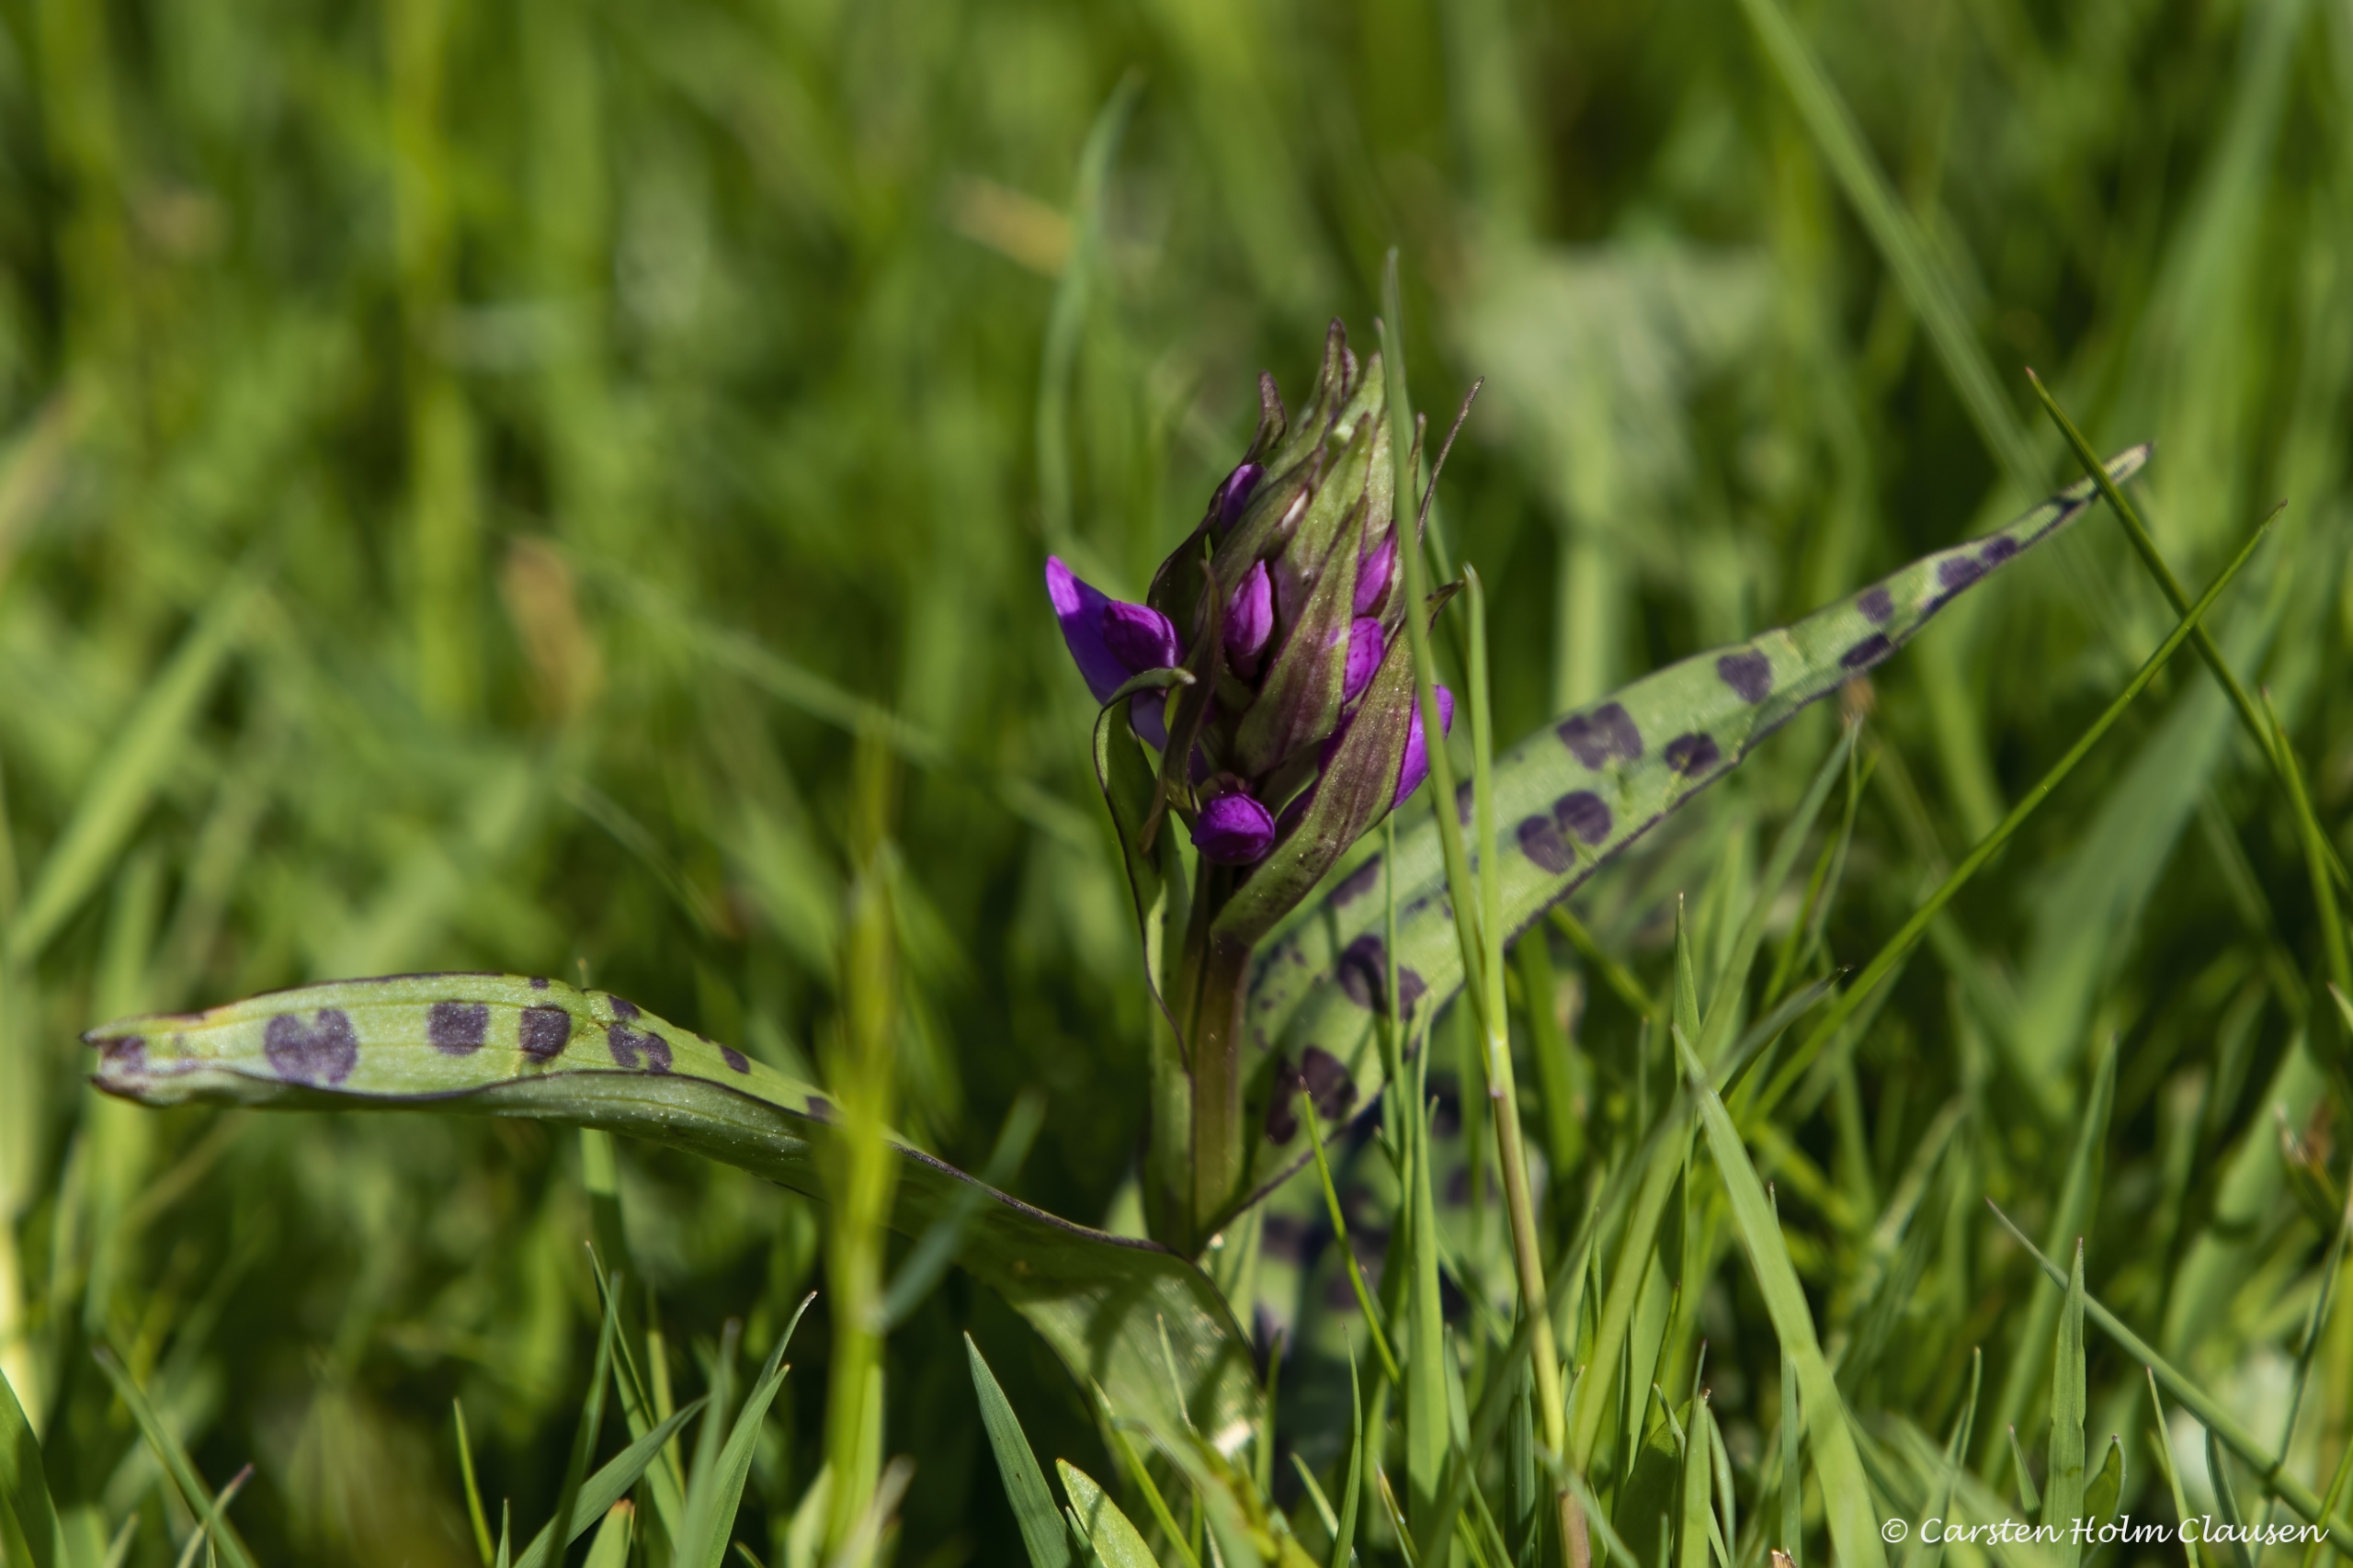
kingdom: Plantae
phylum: Tracheophyta
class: Liliopsida
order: Asparagales
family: Orchidaceae
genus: Dactylorhiza
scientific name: Dactylorhiza majalis
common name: Maj-gøgeurt
